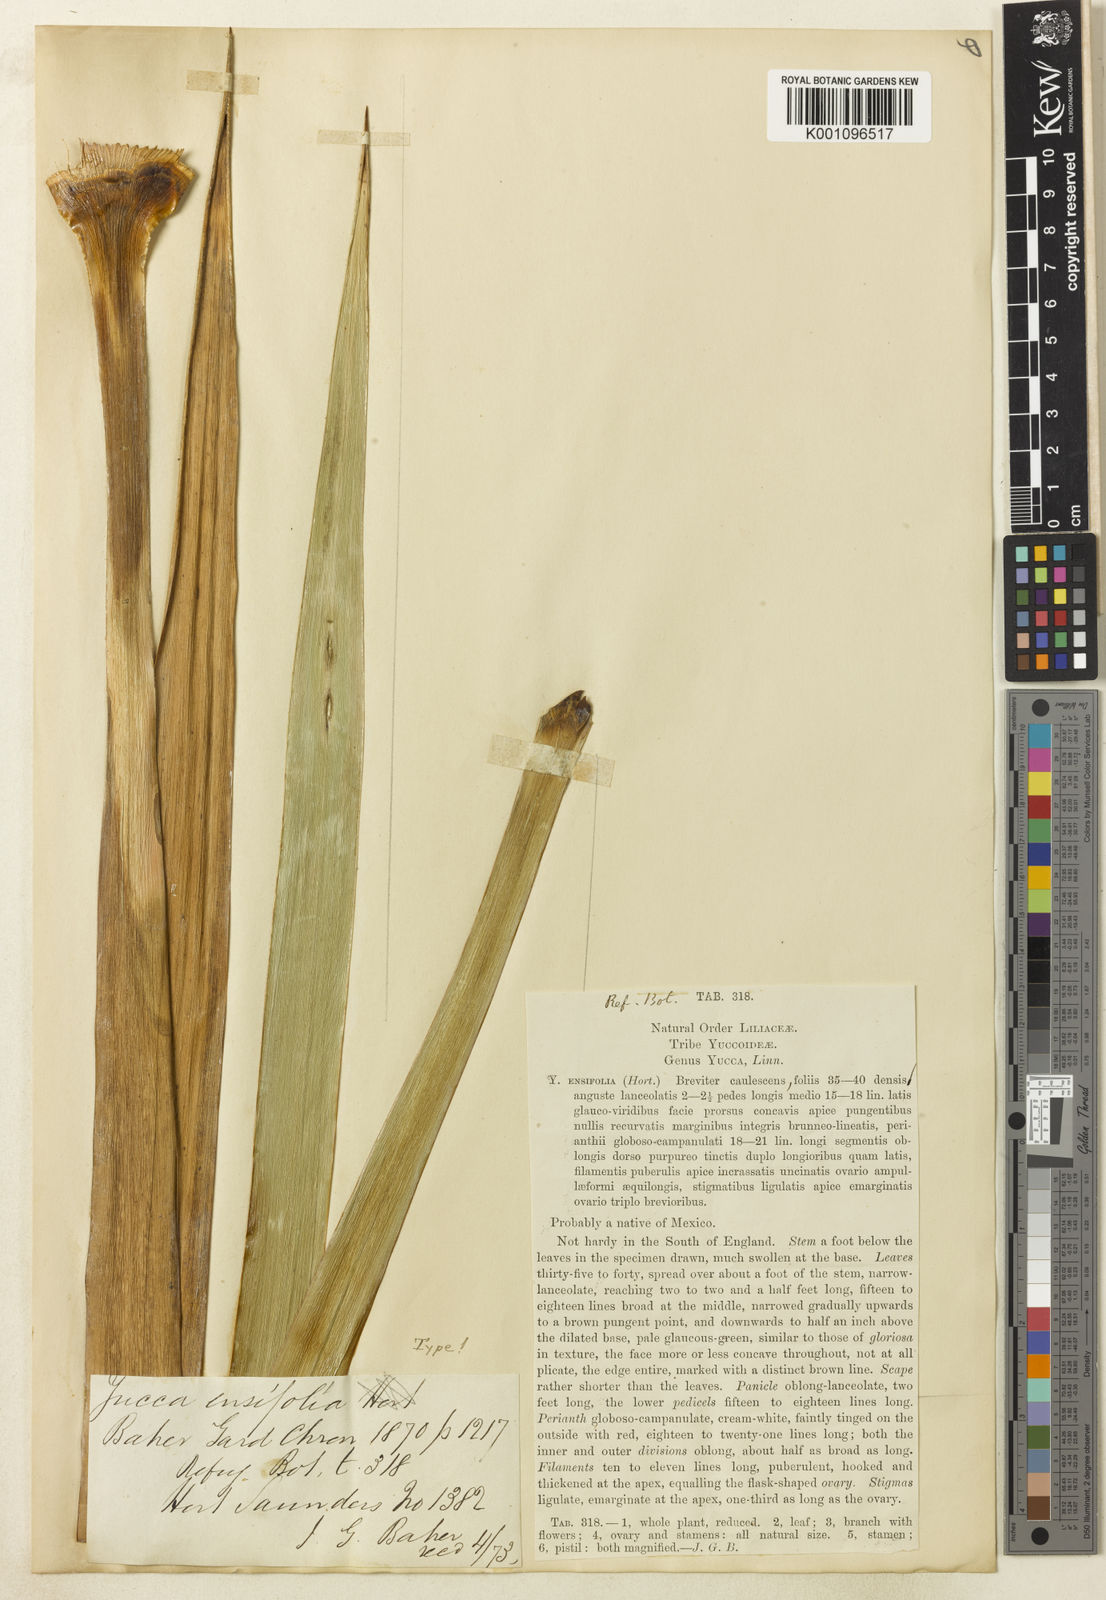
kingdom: Plantae
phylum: Tracheophyta
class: Liliopsida
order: Asparagales
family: Asparagaceae
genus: Yucca
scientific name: Yucca
